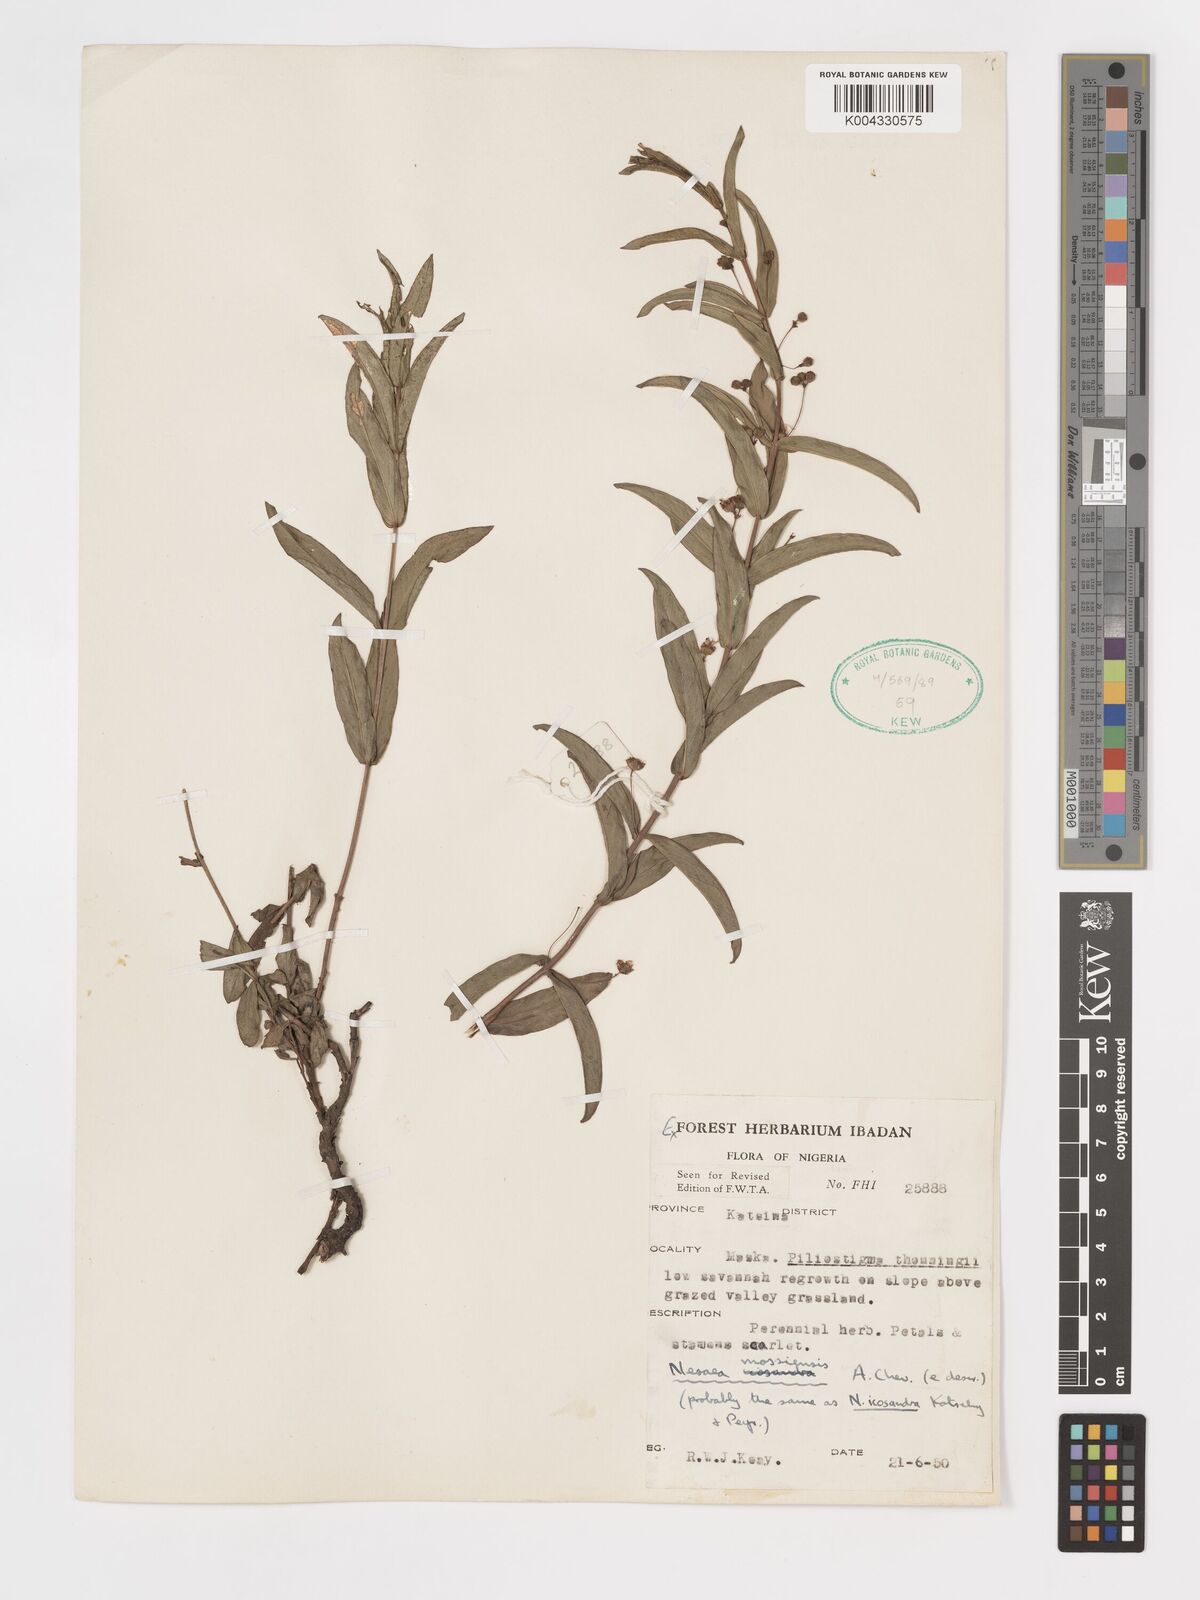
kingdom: Plantae
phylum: Tracheophyta
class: Magnoliopsida
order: Myrtales
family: Lythraceae
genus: Ammannia
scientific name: Ammannia angustifolia
